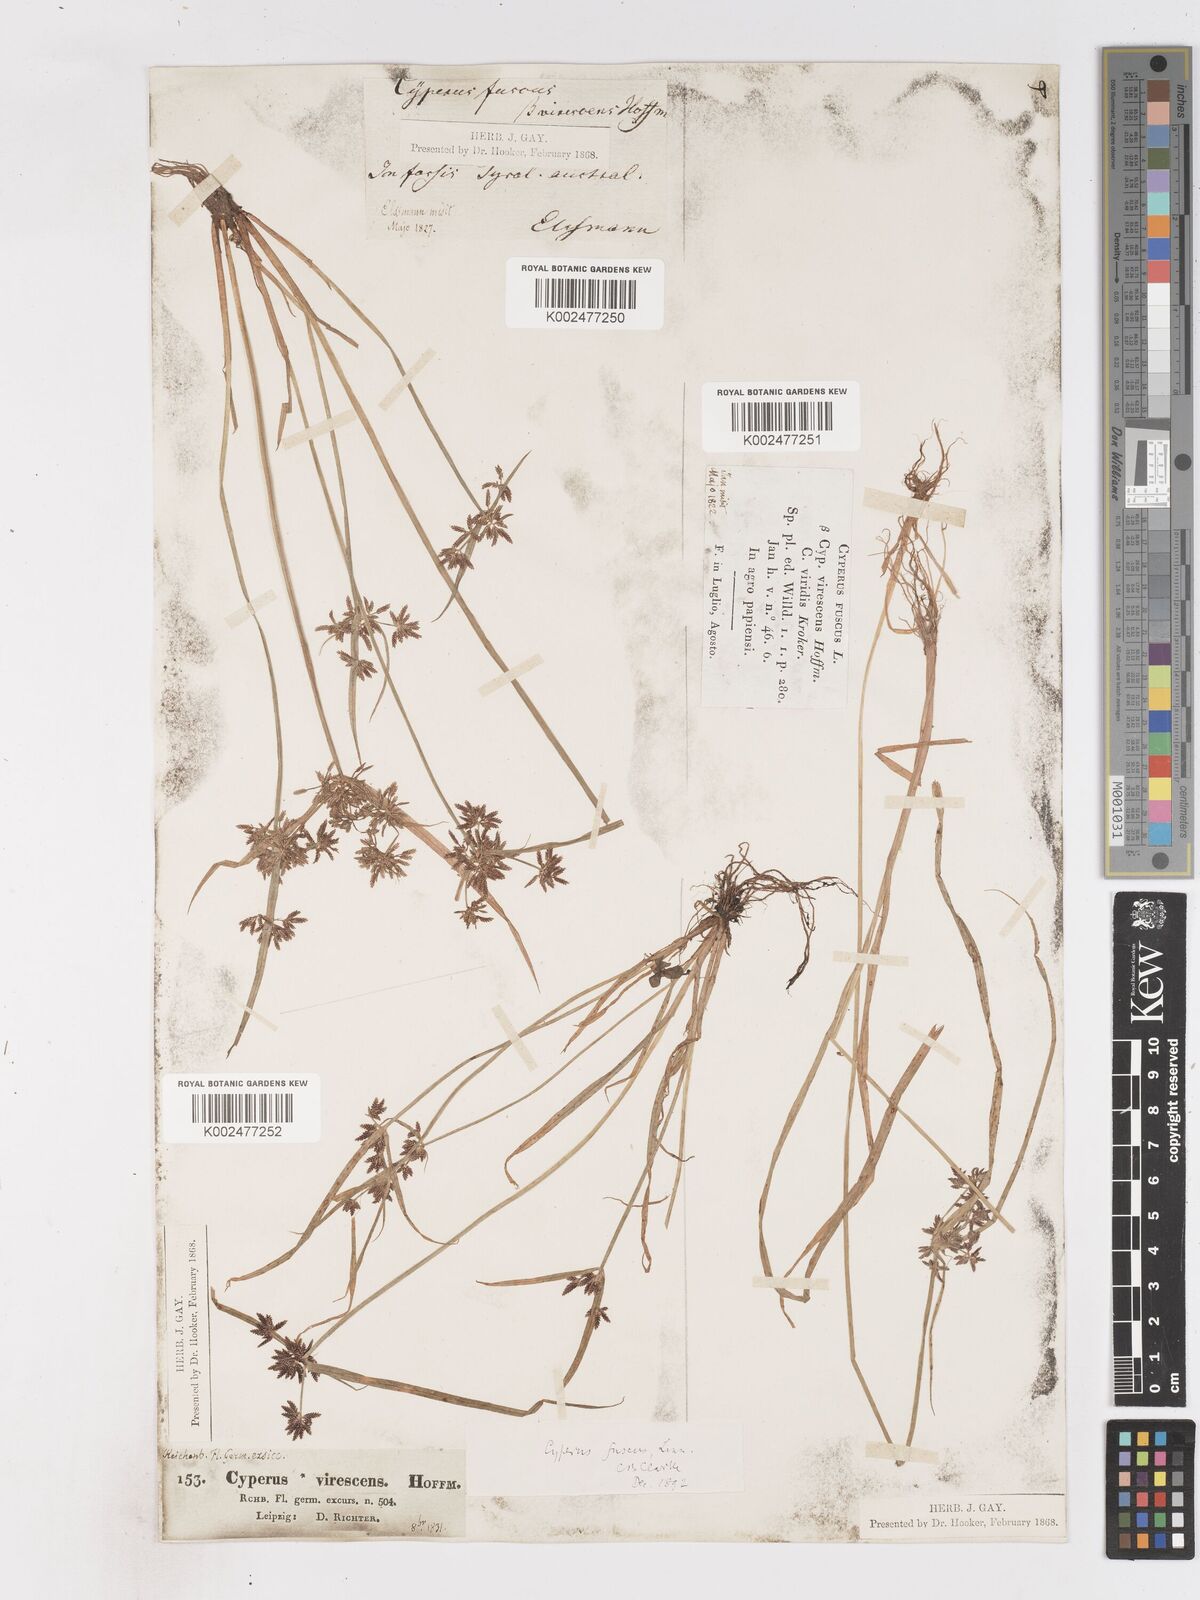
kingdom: Plantae
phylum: Tracheophyta
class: Liliopsida
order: Poales
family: Cyperaceae
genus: Cyperus
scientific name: Cyperus fuscus
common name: Brown galingale
